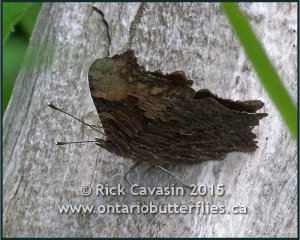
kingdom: Animalia
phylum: Arthropoda
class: Insecta
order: Lepidoptera
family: Nymphalidae
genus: Polygonia
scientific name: Polygonia progne
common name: Gray Comma
